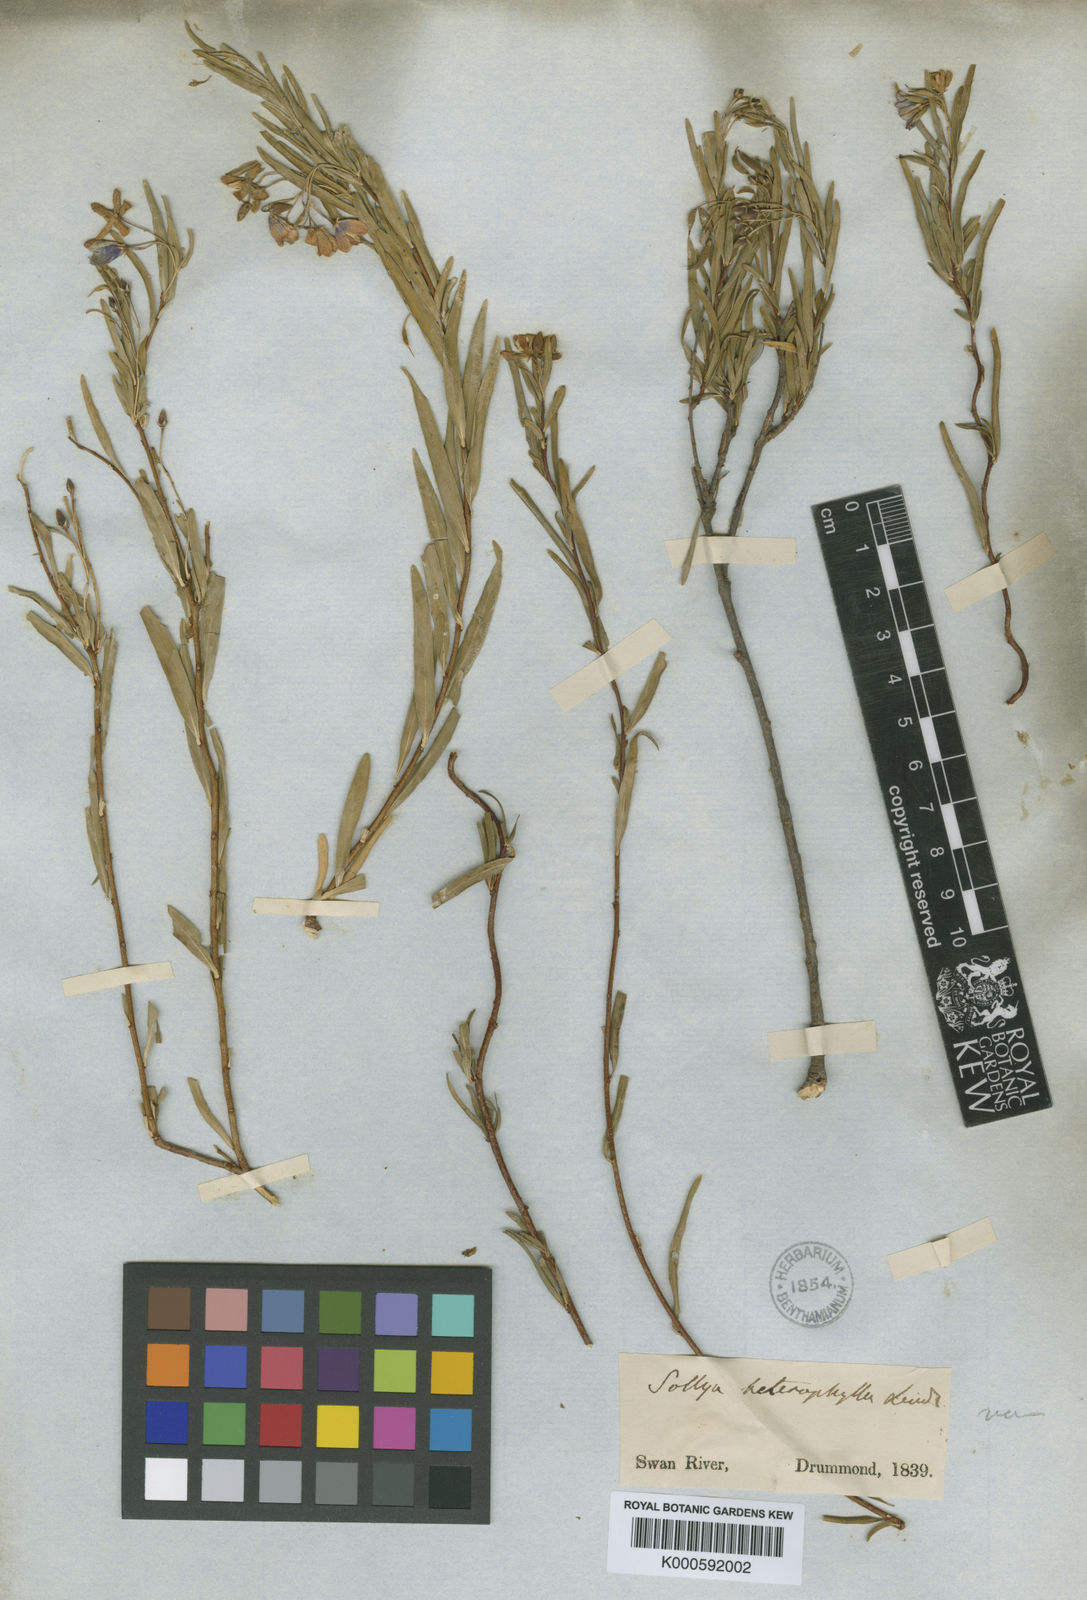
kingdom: Plantae
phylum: Tracheophyta
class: Magnoliopsida
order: Apiales
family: Pittosporaceae
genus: Billardiera
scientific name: Billardiera heterophylla
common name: Bluebell creeper
